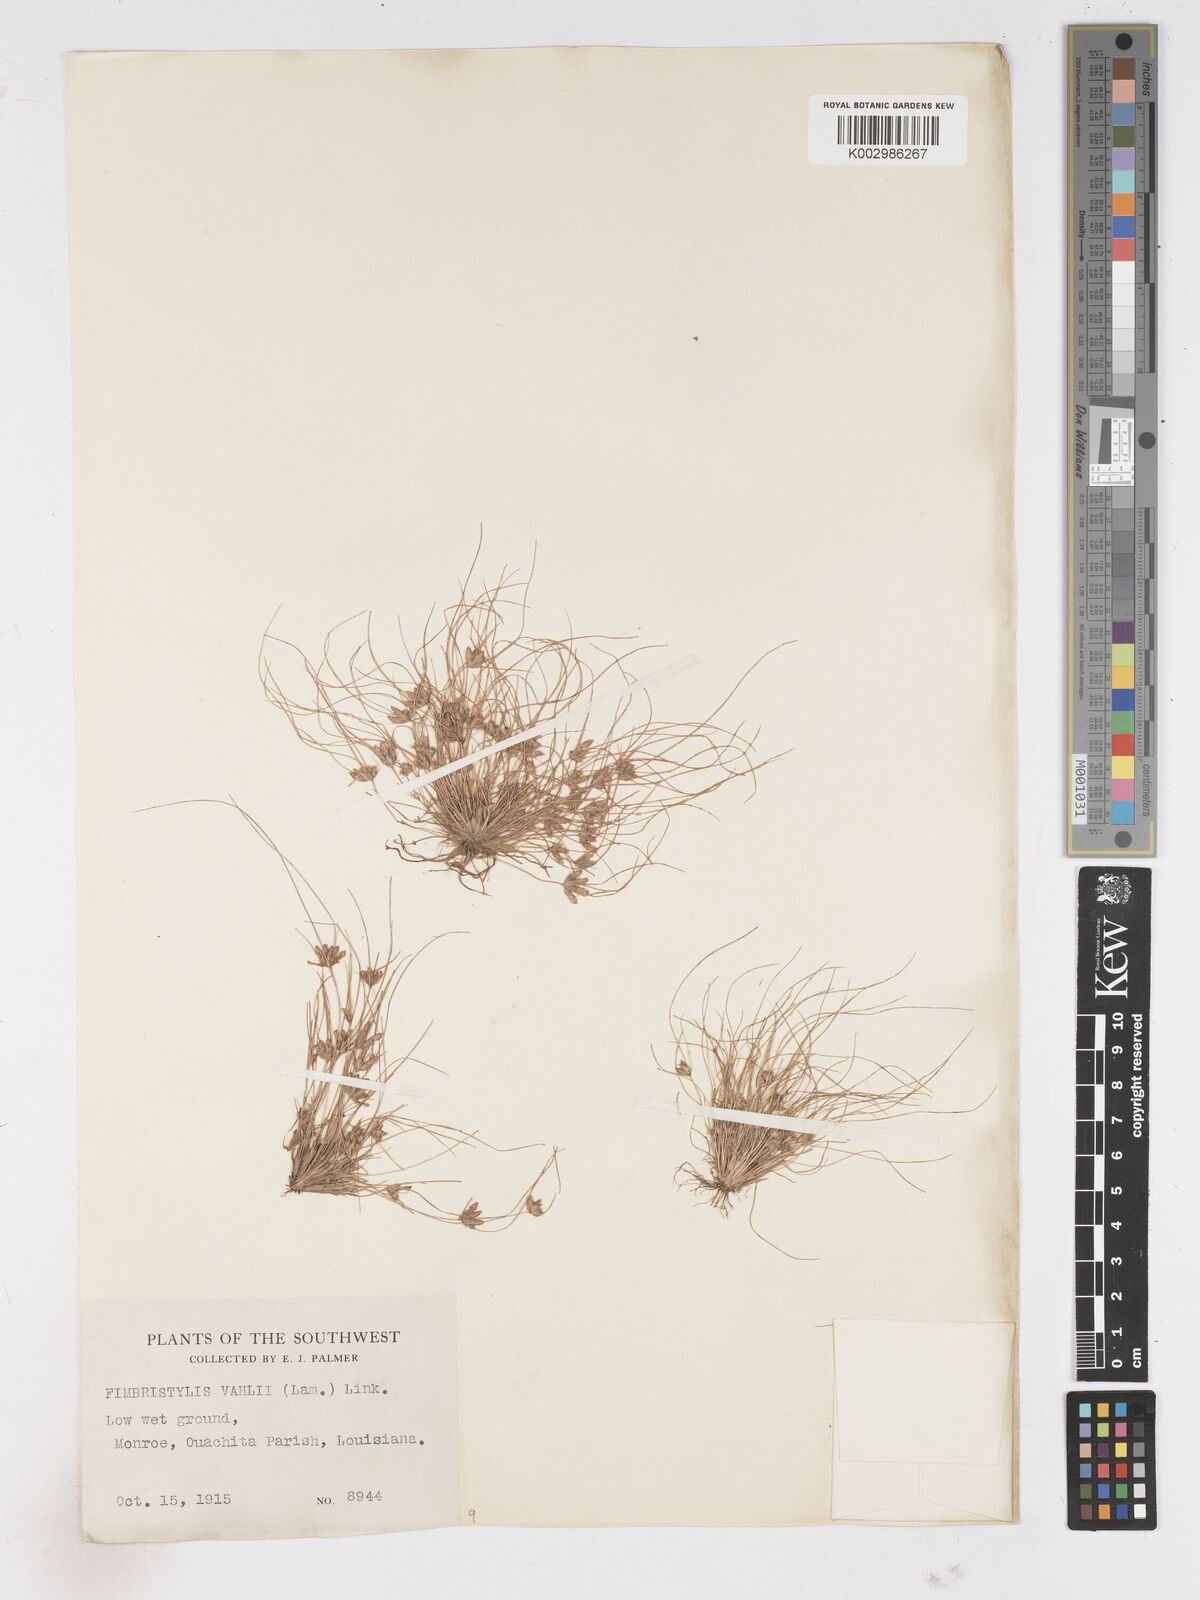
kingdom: Plantae
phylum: Tracheophyta
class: Liliopsida
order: Poales
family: Cyperaceae
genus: Fimbristylis
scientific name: Fimbristylis vahlii
